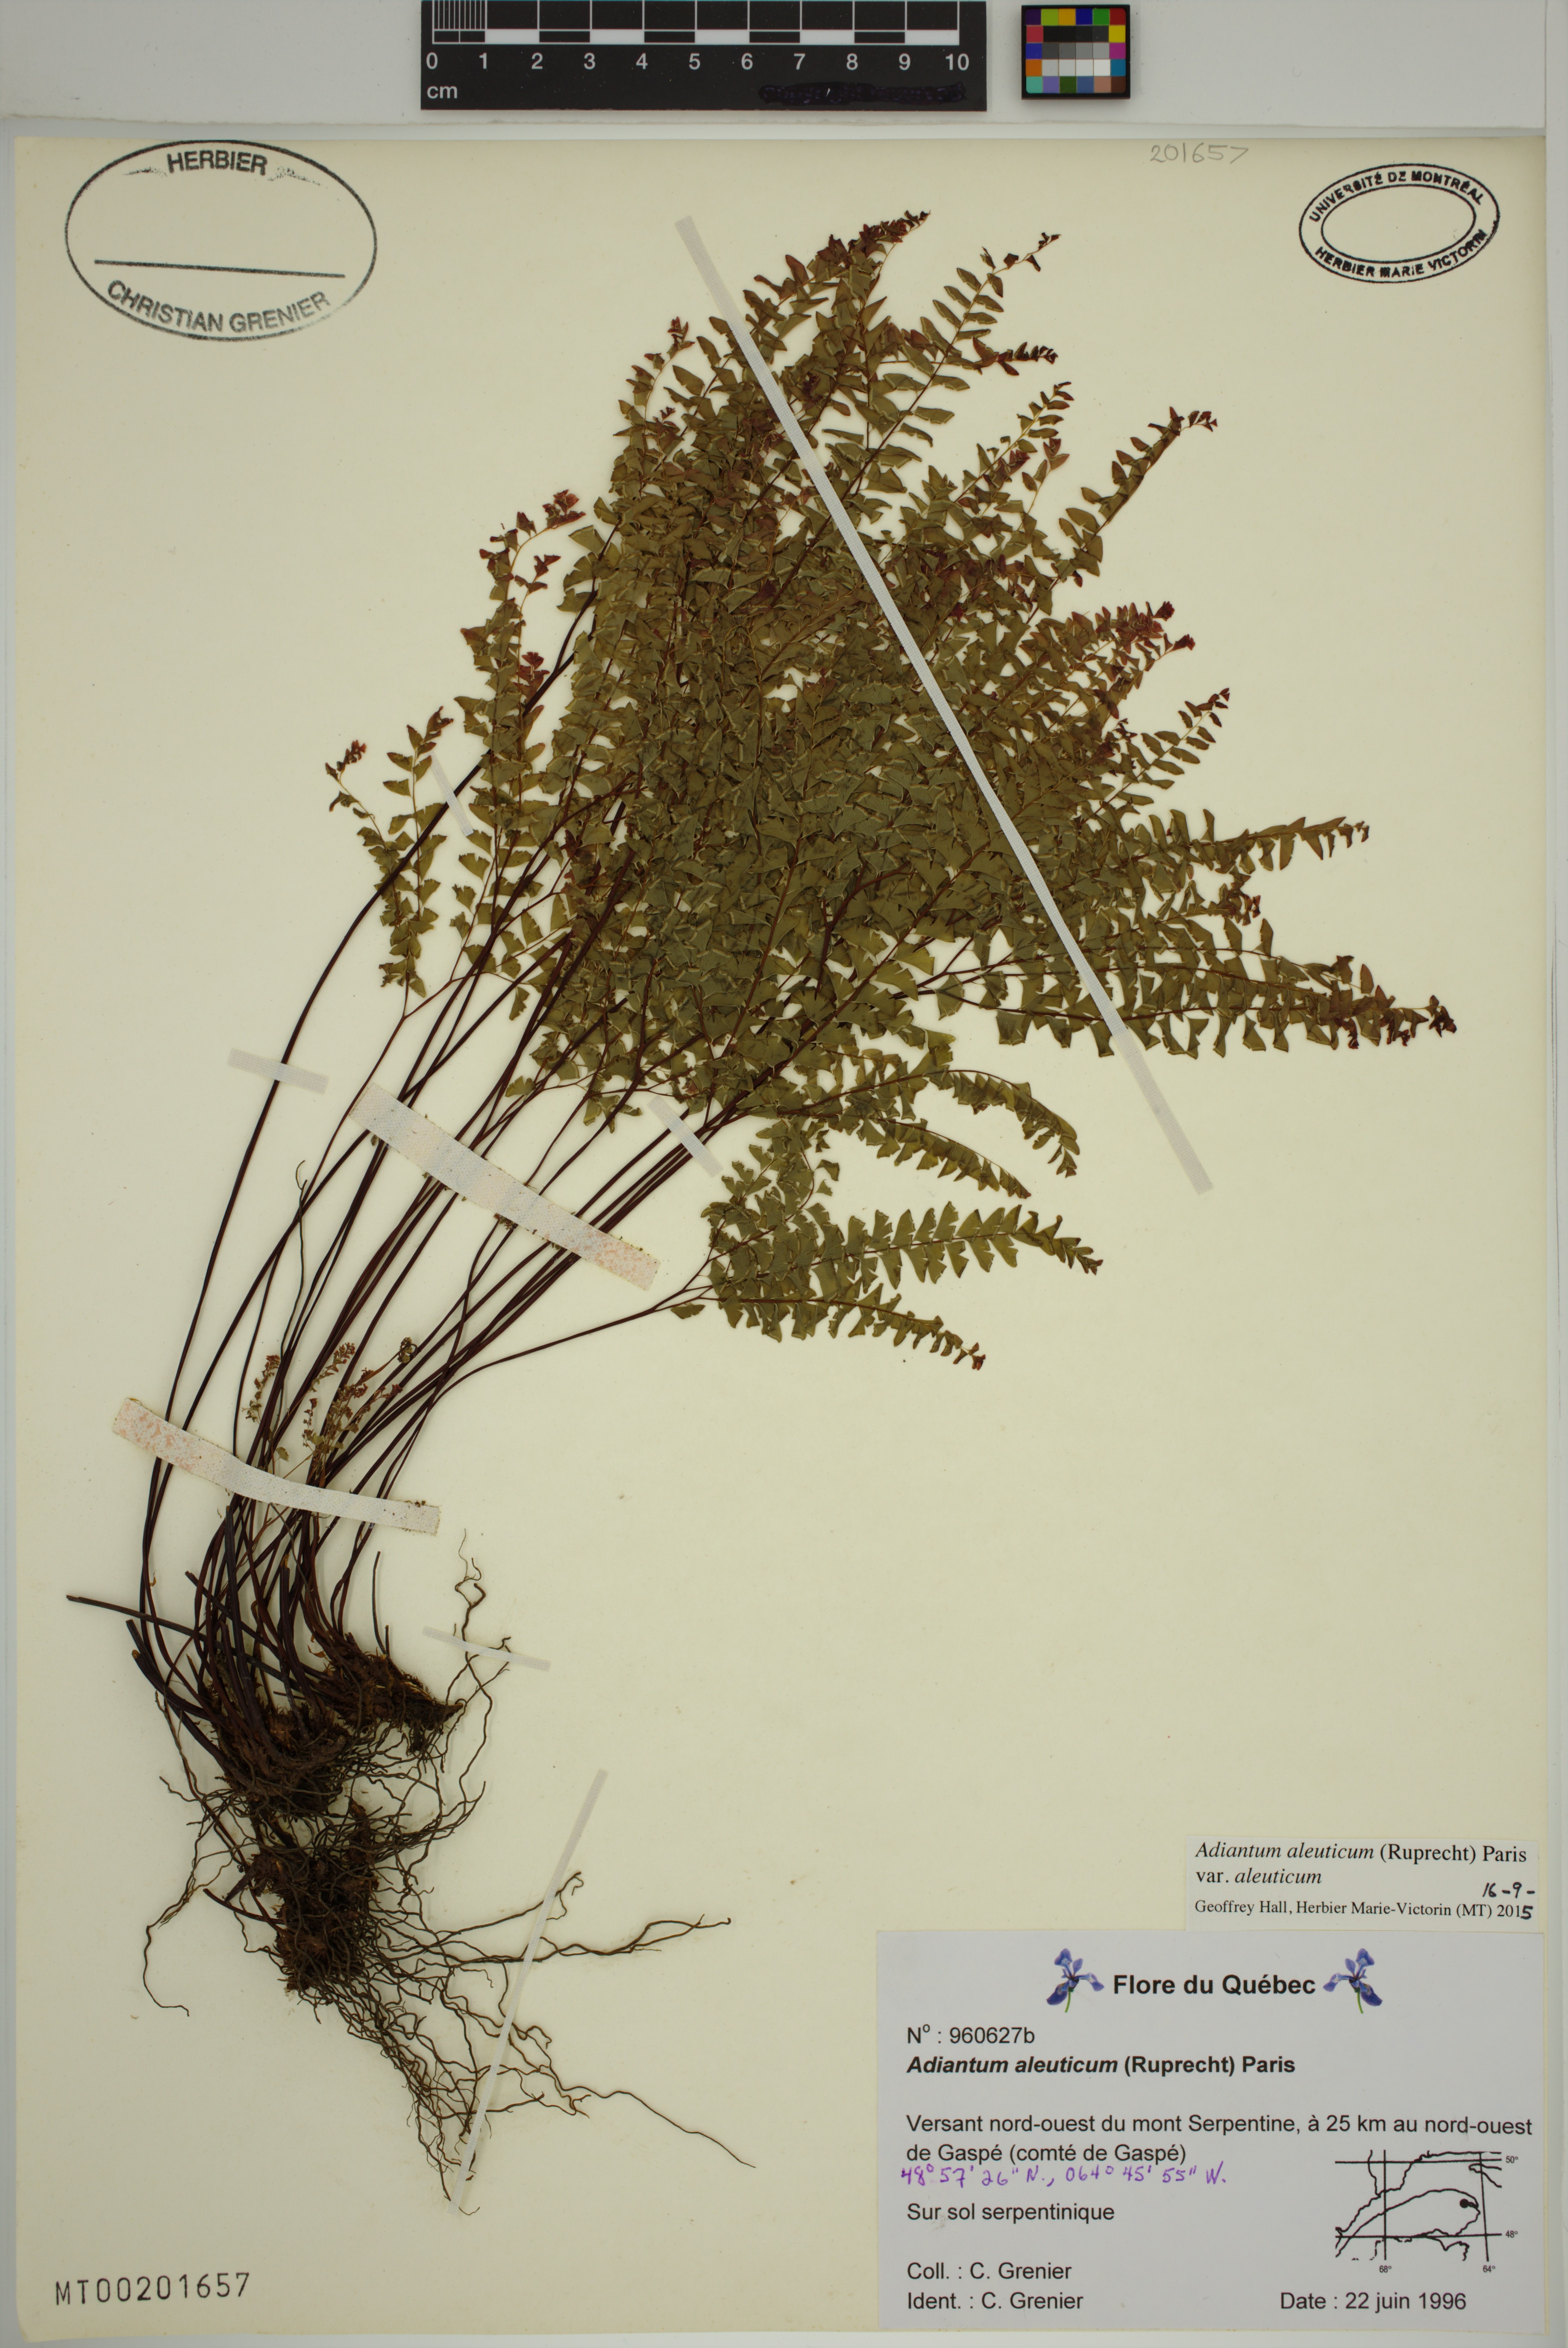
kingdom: Plantae
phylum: Tracheophyta
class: Polypodiopsida
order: Polypodiales
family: Pteridaceae
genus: Adiantum
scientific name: Adiantum aleuticum
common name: Aleutian maidenhair fern
